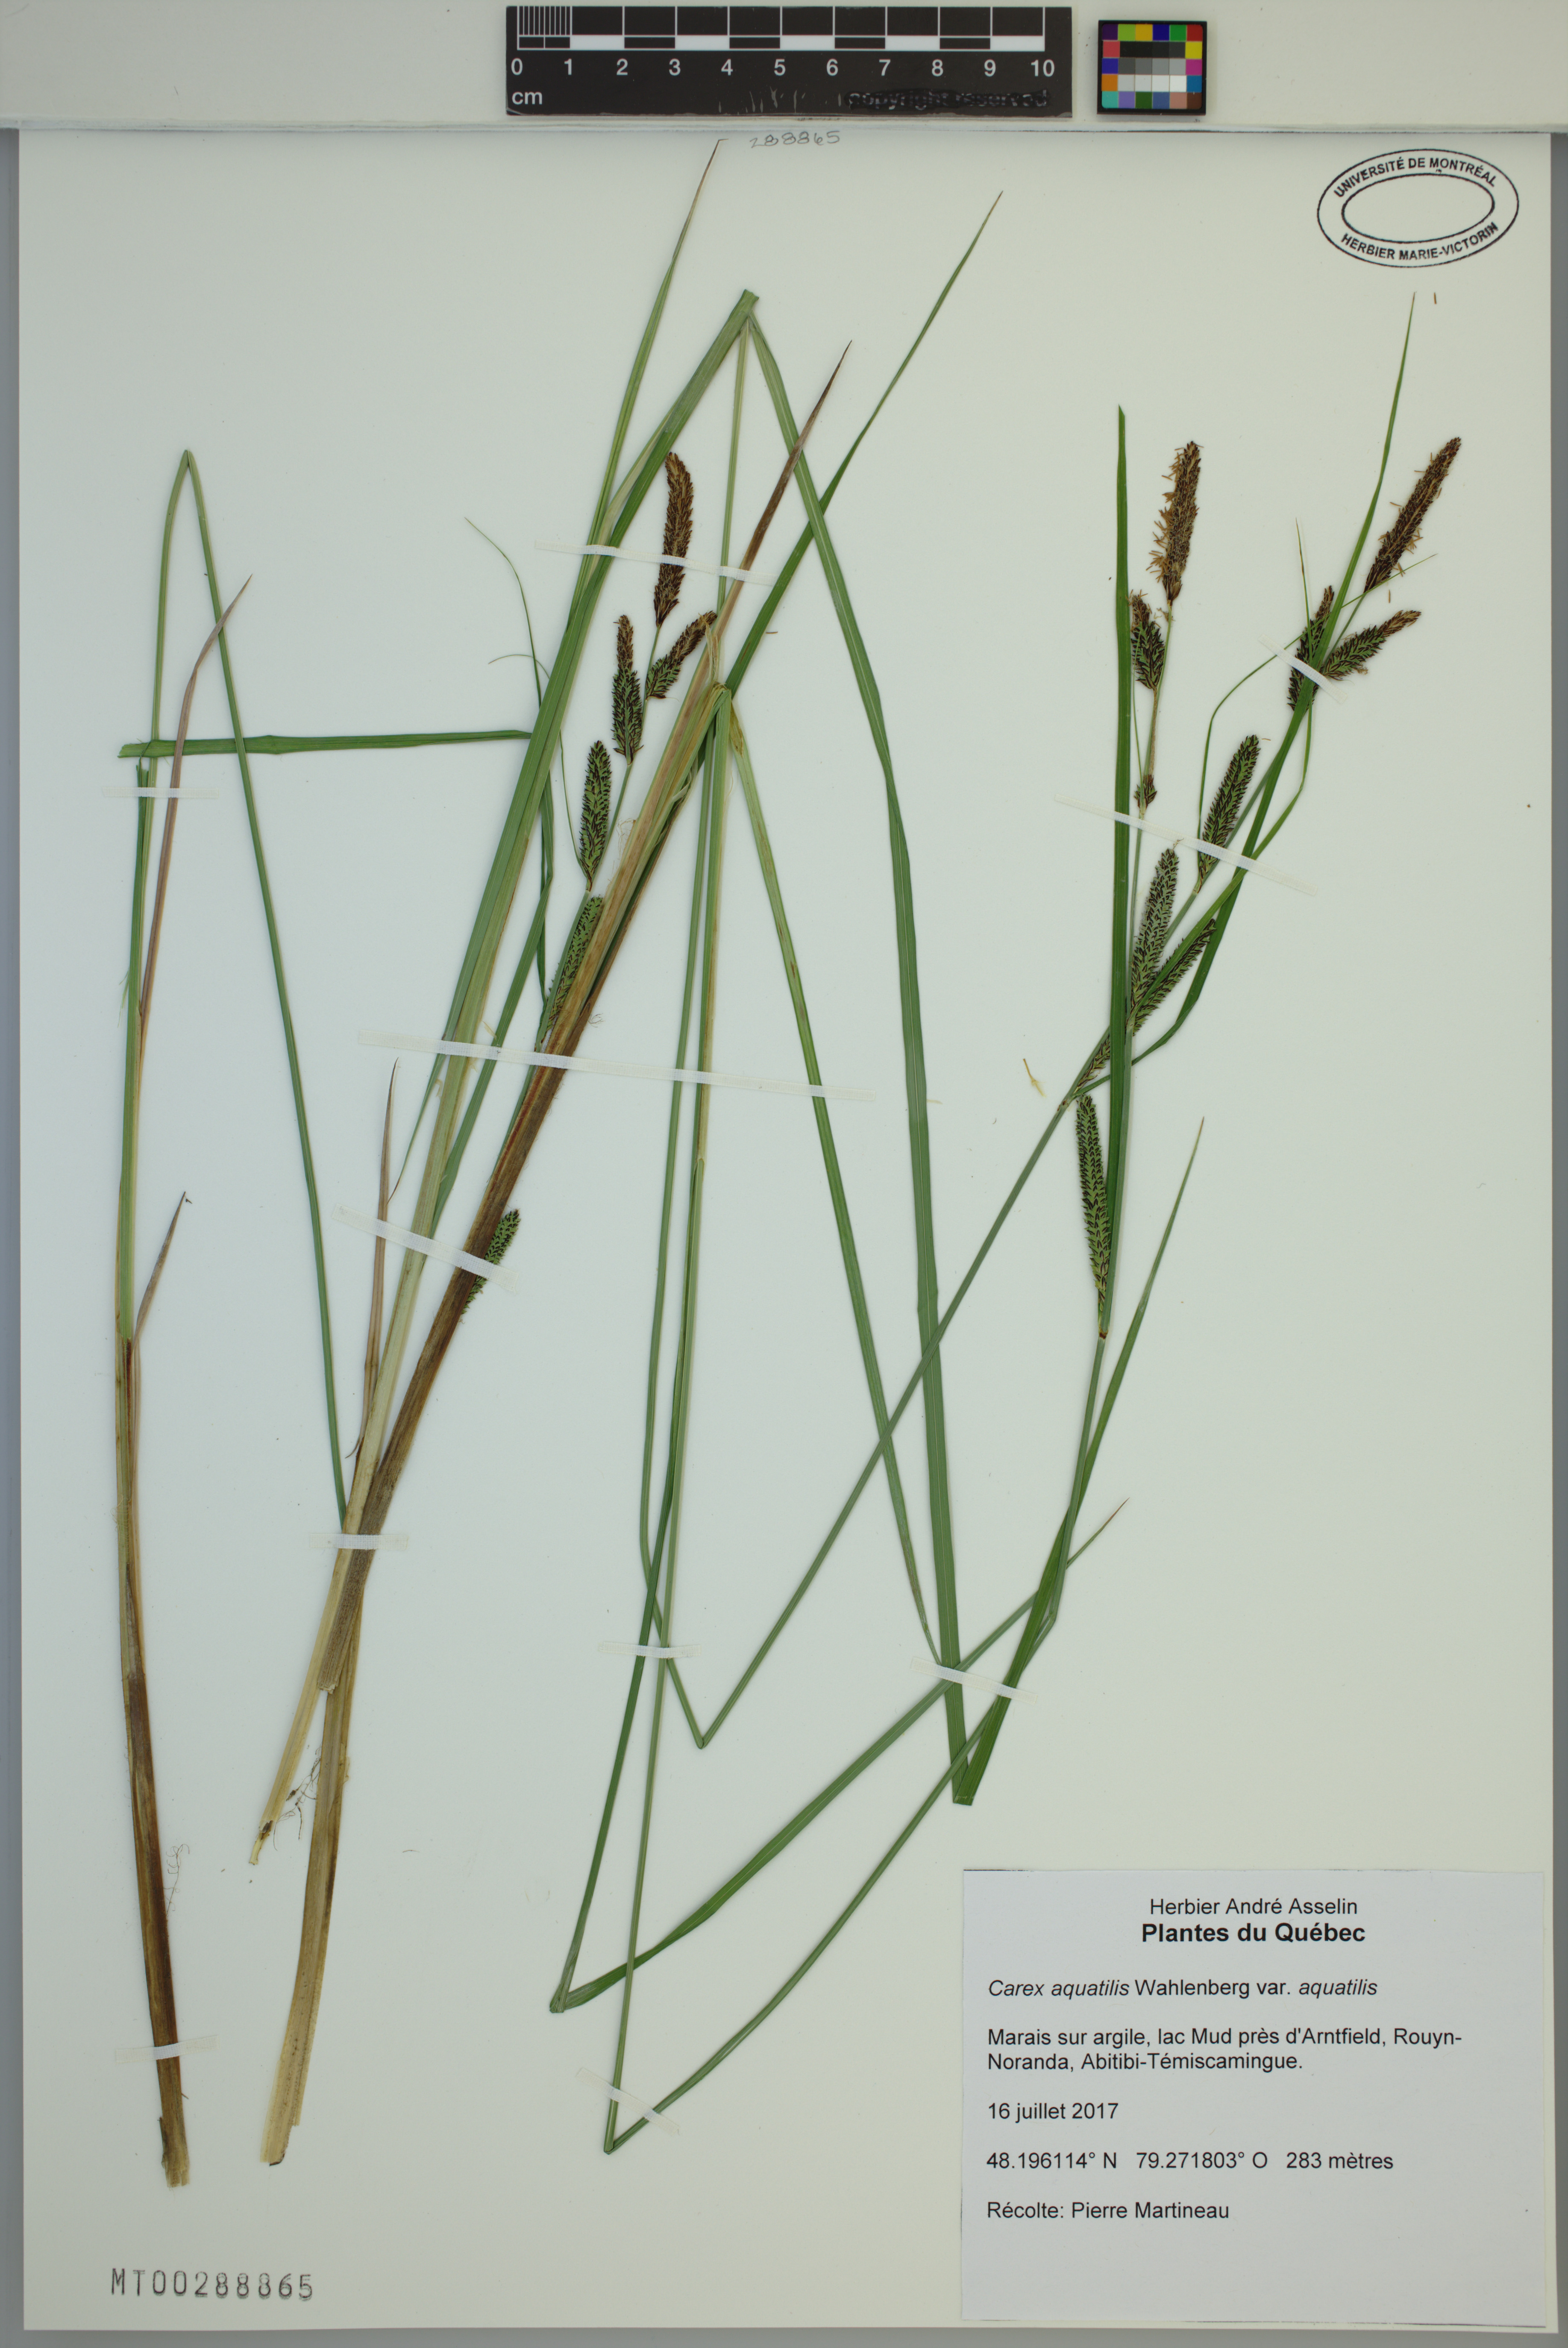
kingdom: Plantae
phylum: Tracheophyta
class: Liliopsida
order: Poales
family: Cyperaceae
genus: Carex
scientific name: Carex aquatilis
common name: Water sedge
